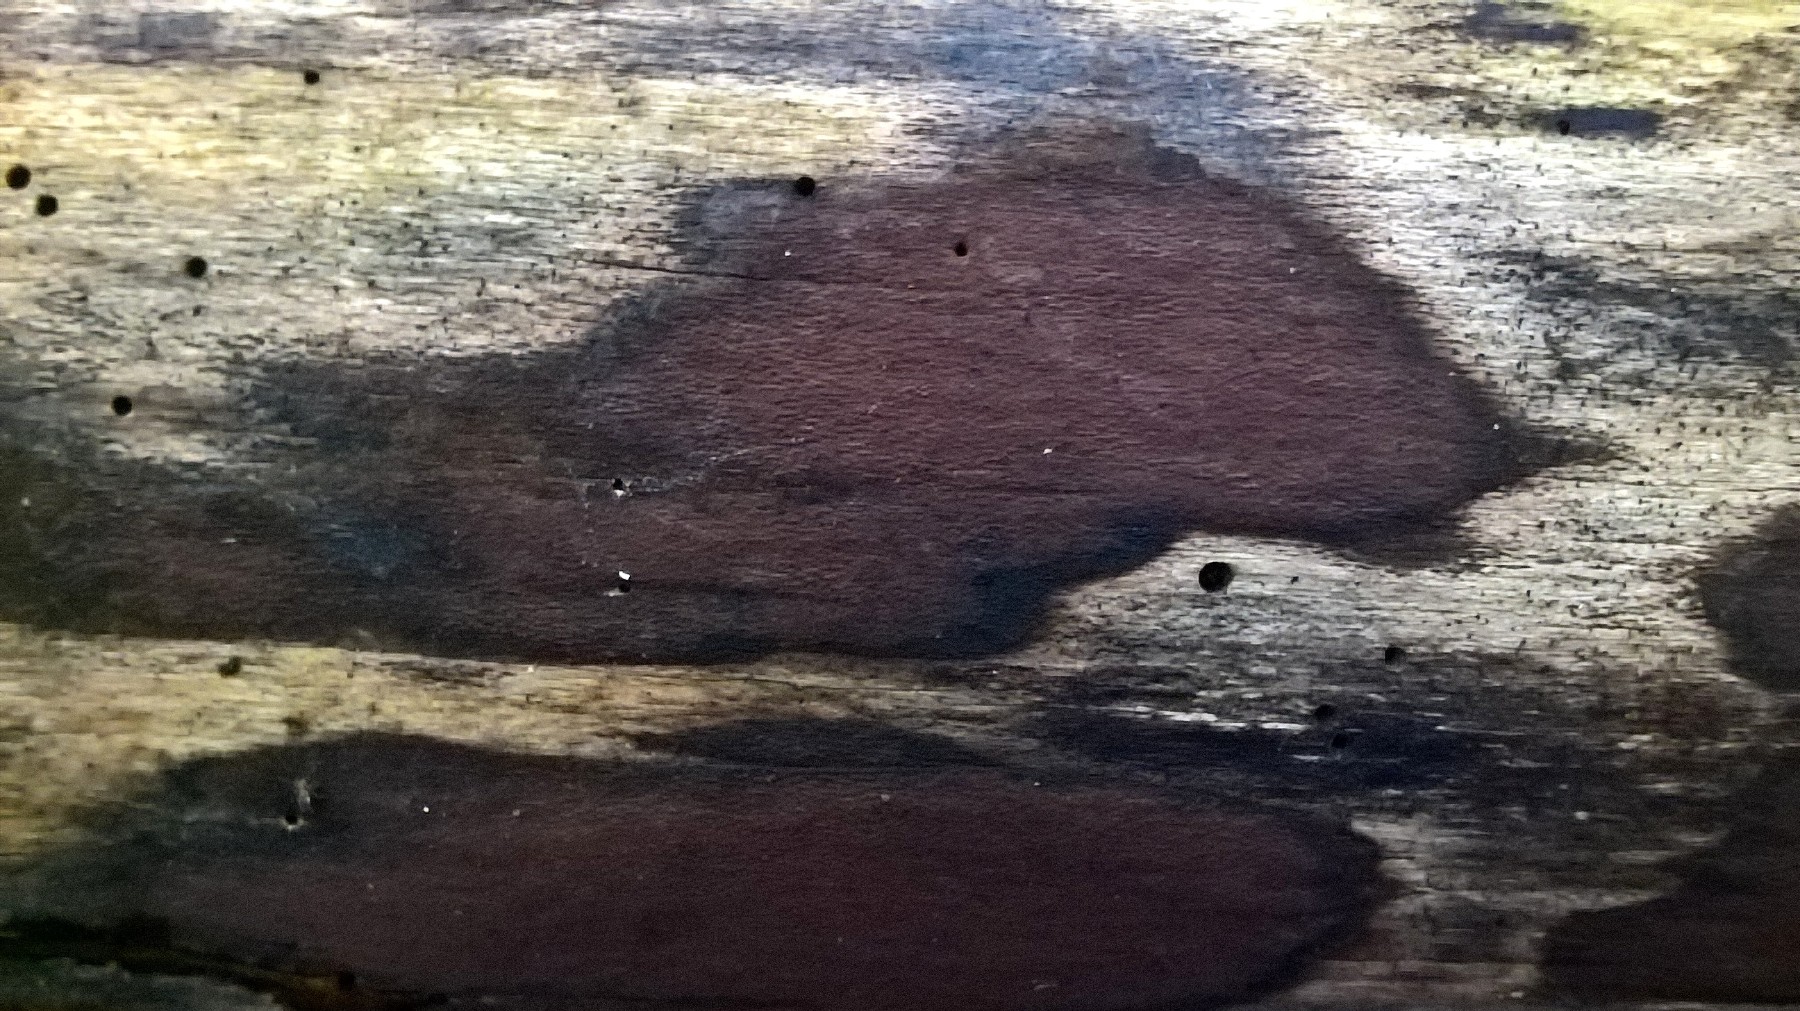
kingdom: Fungi
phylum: Ascomycota
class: Sordariomycetes
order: Xylariales
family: Hypoxylaceae
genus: Hypoxylon
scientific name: Hypoxylon macrocarpum
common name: skorpe-kulbær
